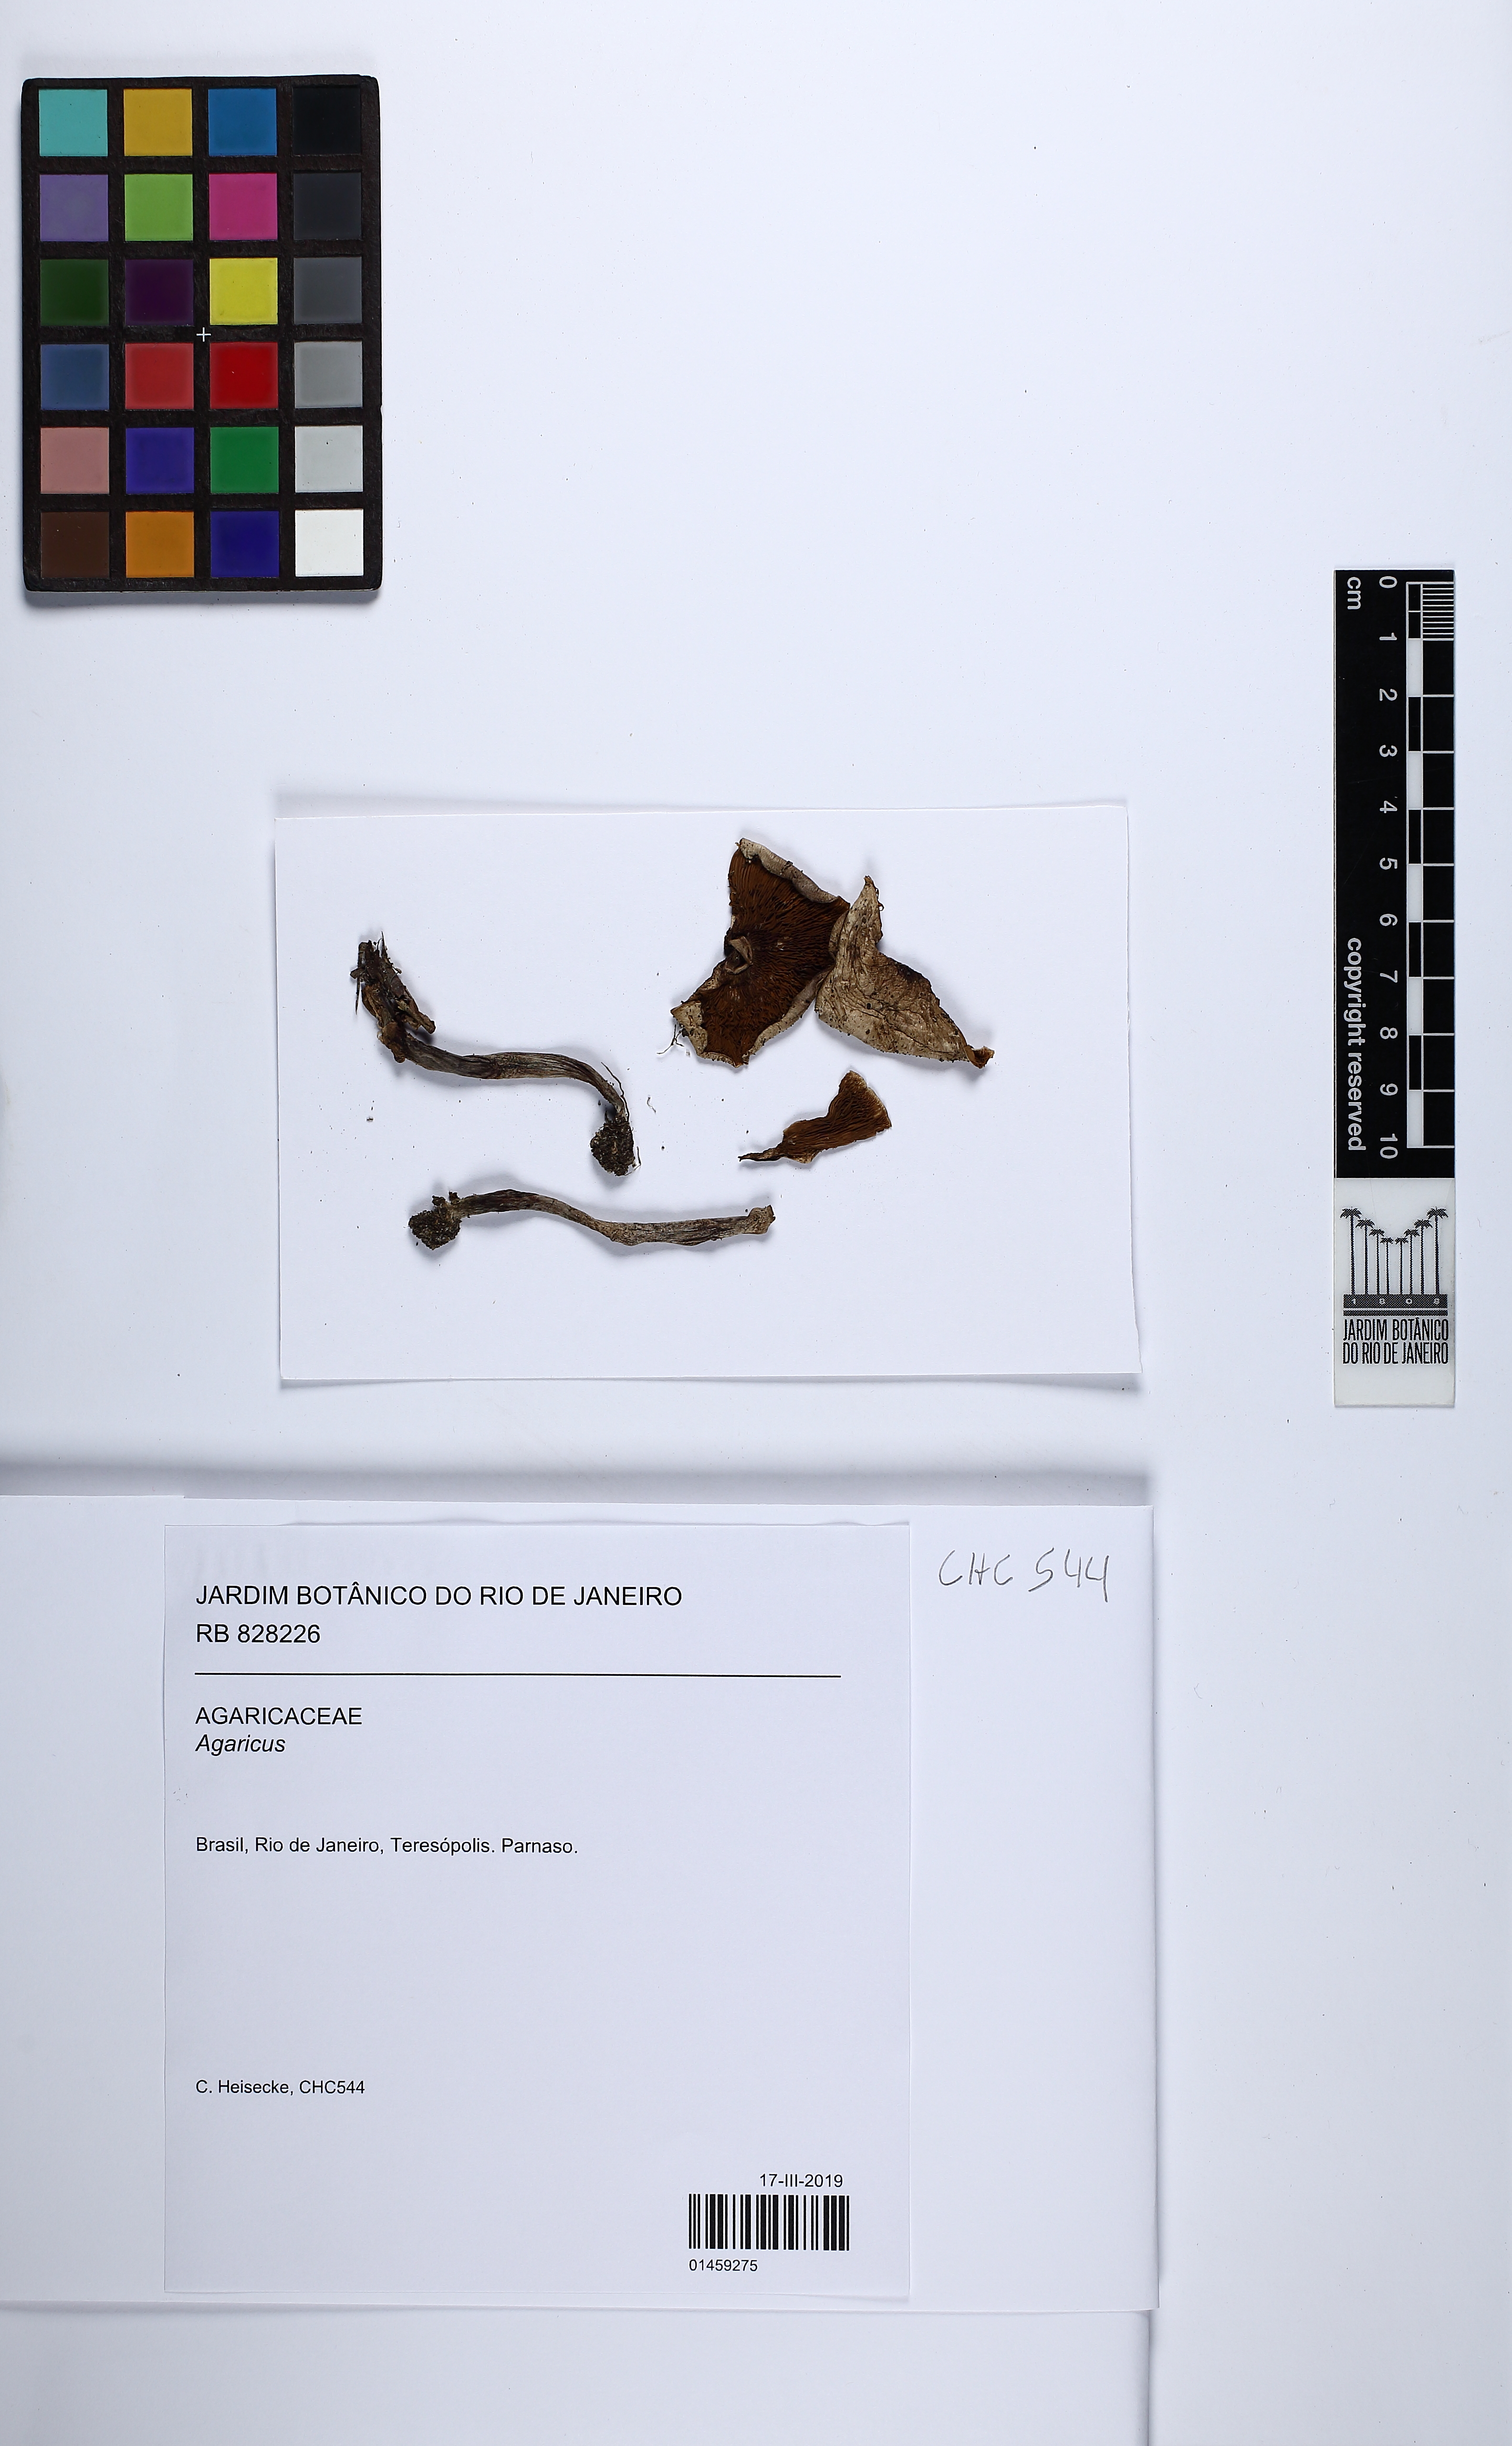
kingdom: Fungi
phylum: Basidiomycota
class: Agaricomycetes
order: Agaricales
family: Agaricaceae
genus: Agaricus
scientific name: Agaricus
